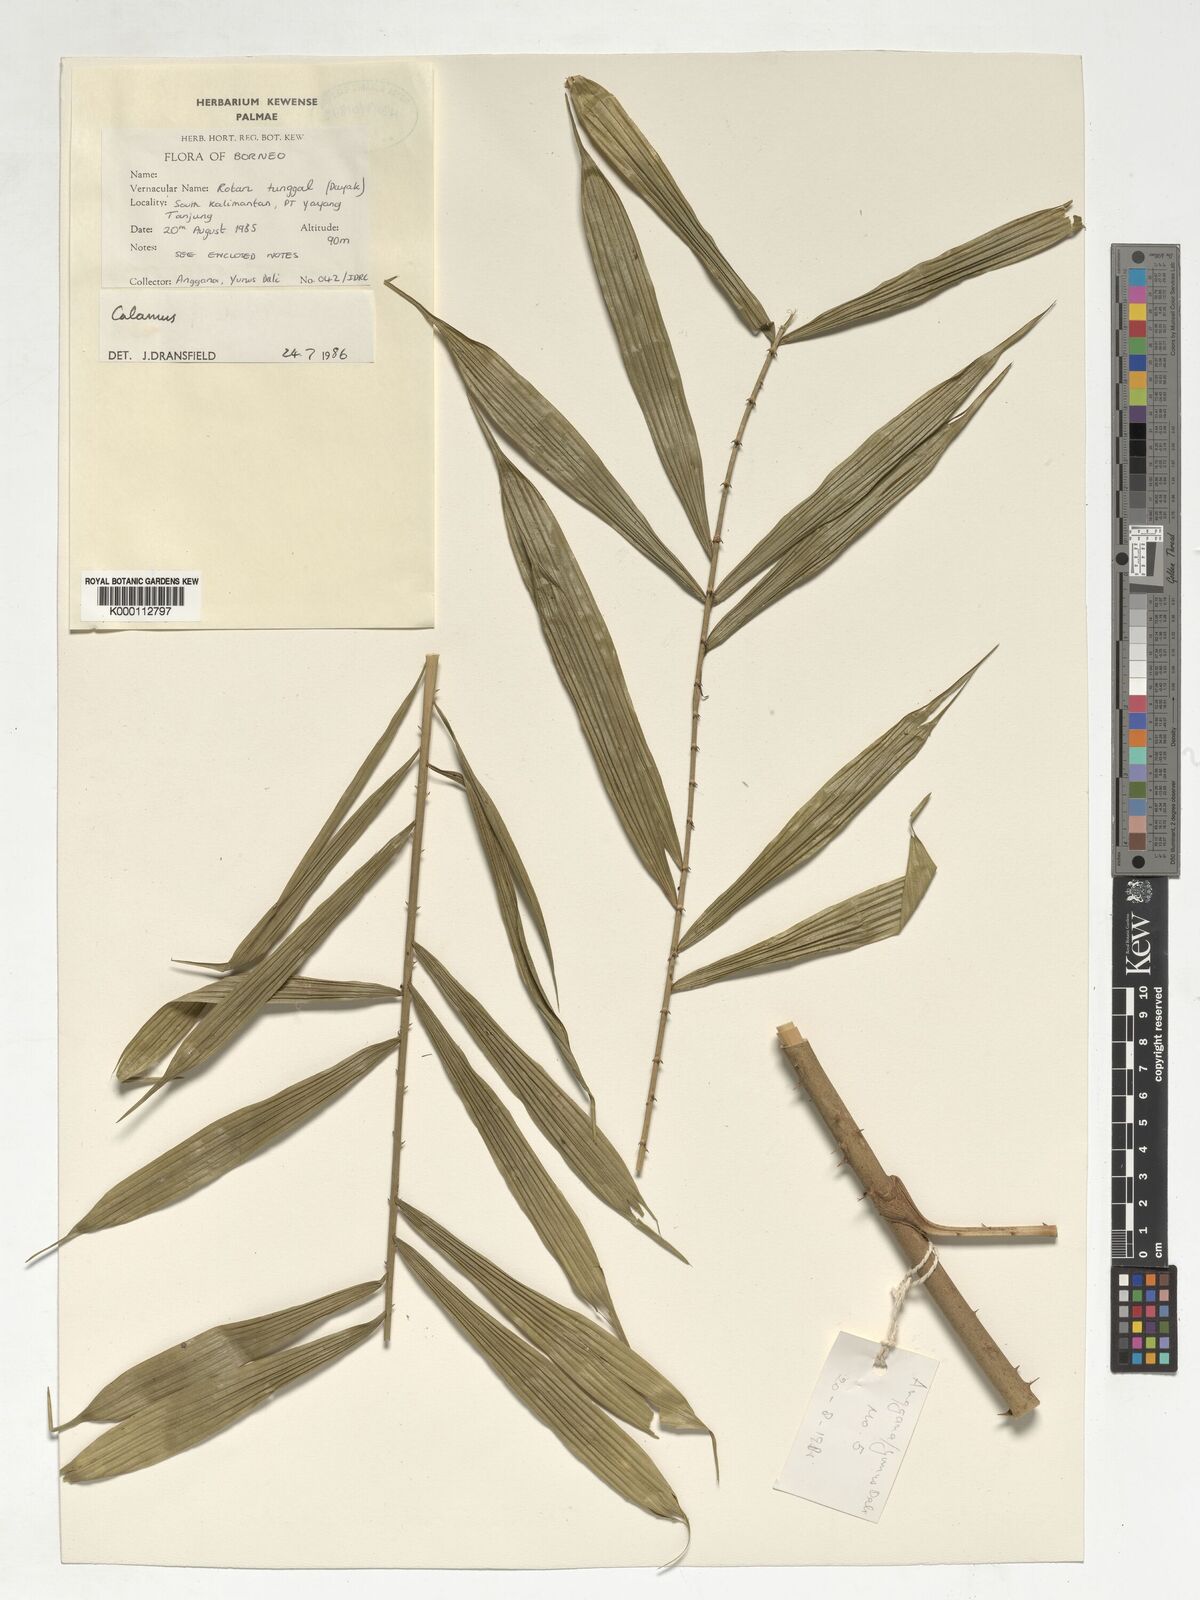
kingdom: Plantae
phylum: Tracheophyta
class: Liliopsida
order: Arecales
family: Arecaceae
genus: Calamus
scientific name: Calamus plicatus
